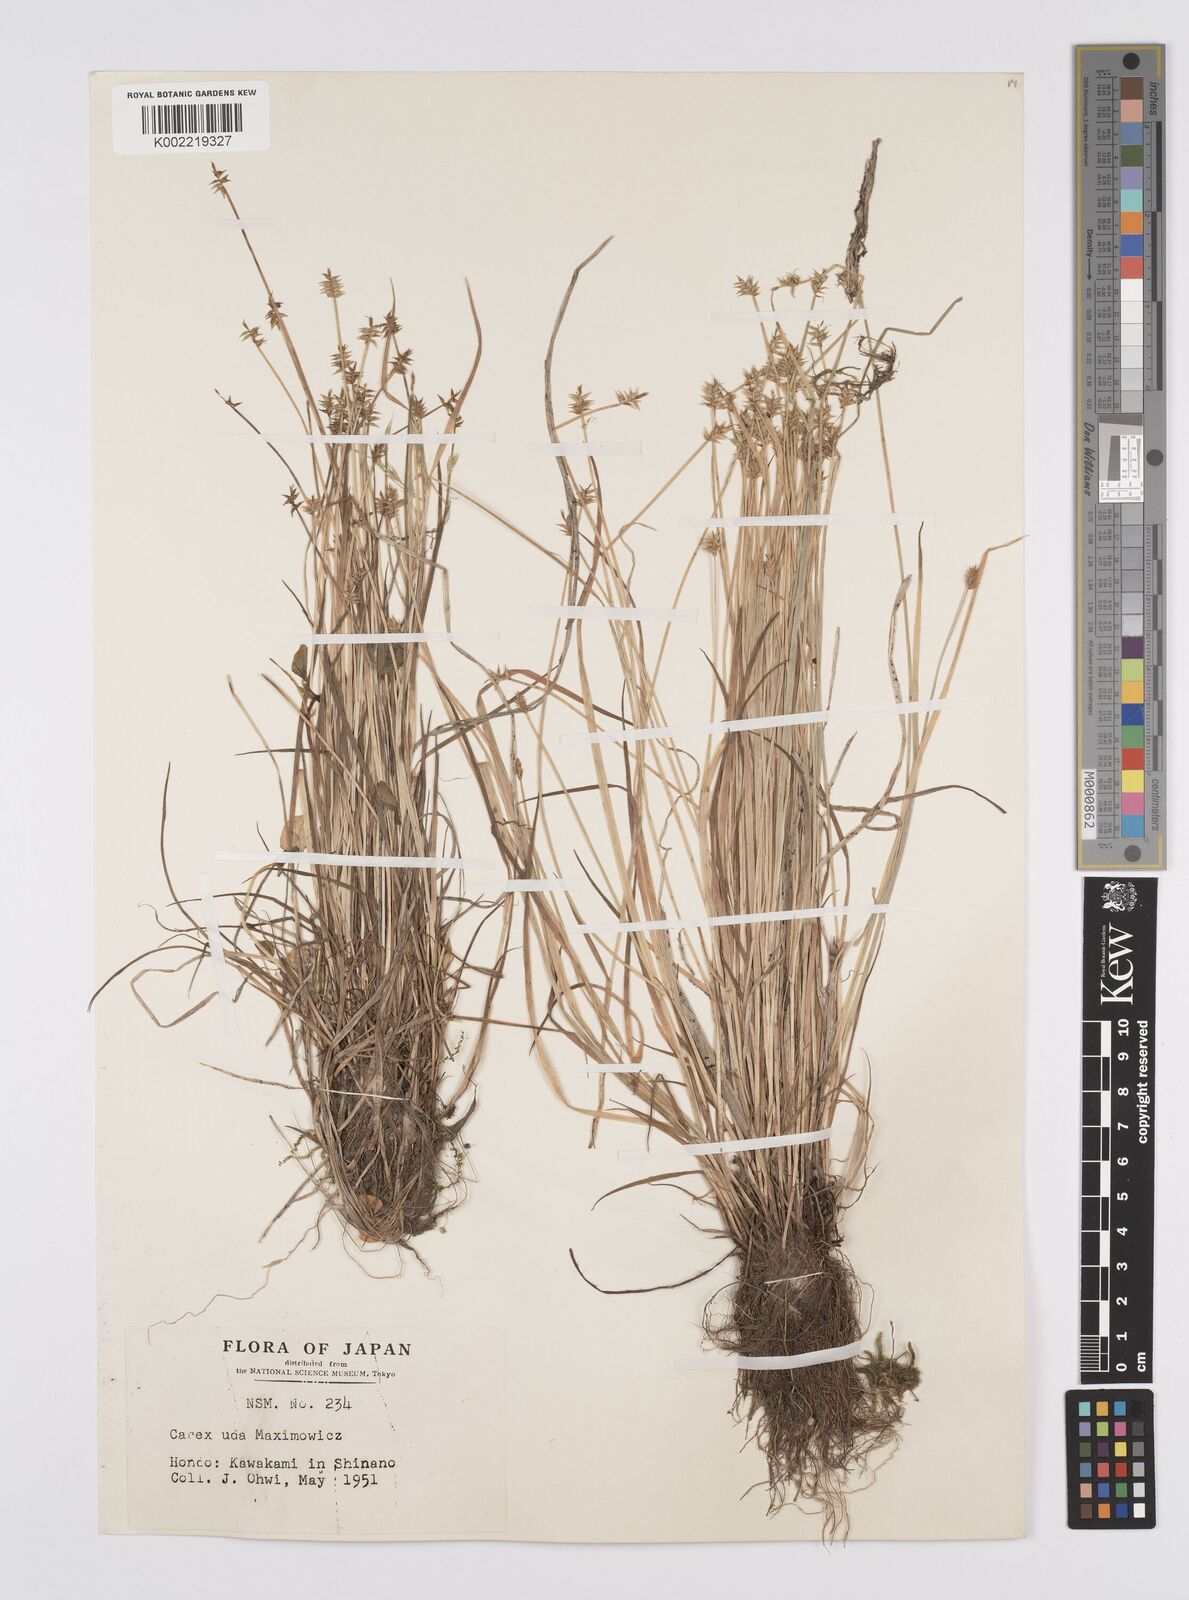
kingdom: Plantae
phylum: Tracheophyta
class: Liliopsida
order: Poales
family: Cyperaceae
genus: Carex
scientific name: Carex uda
